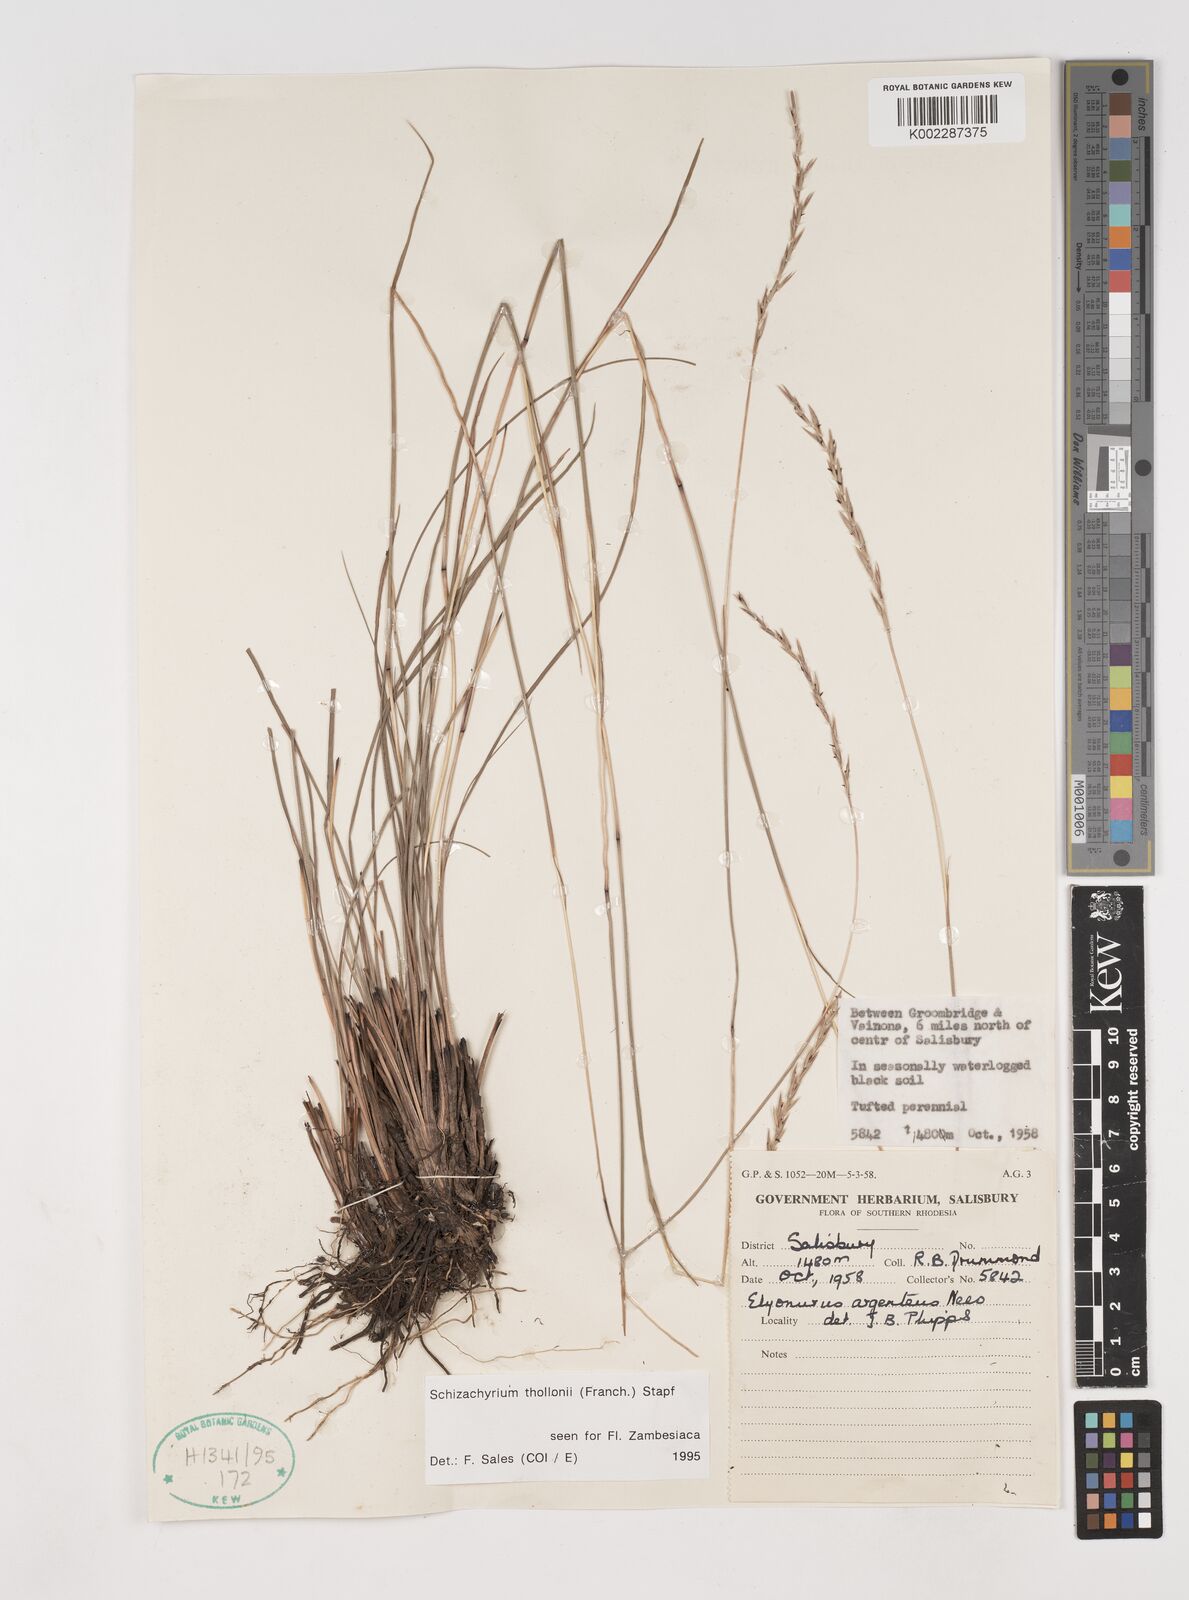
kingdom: Plantae
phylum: Tracheophyta
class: Liliopsida
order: Poales
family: Poaceae
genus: Schizachyrium
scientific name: Schizachyrium thollonii
